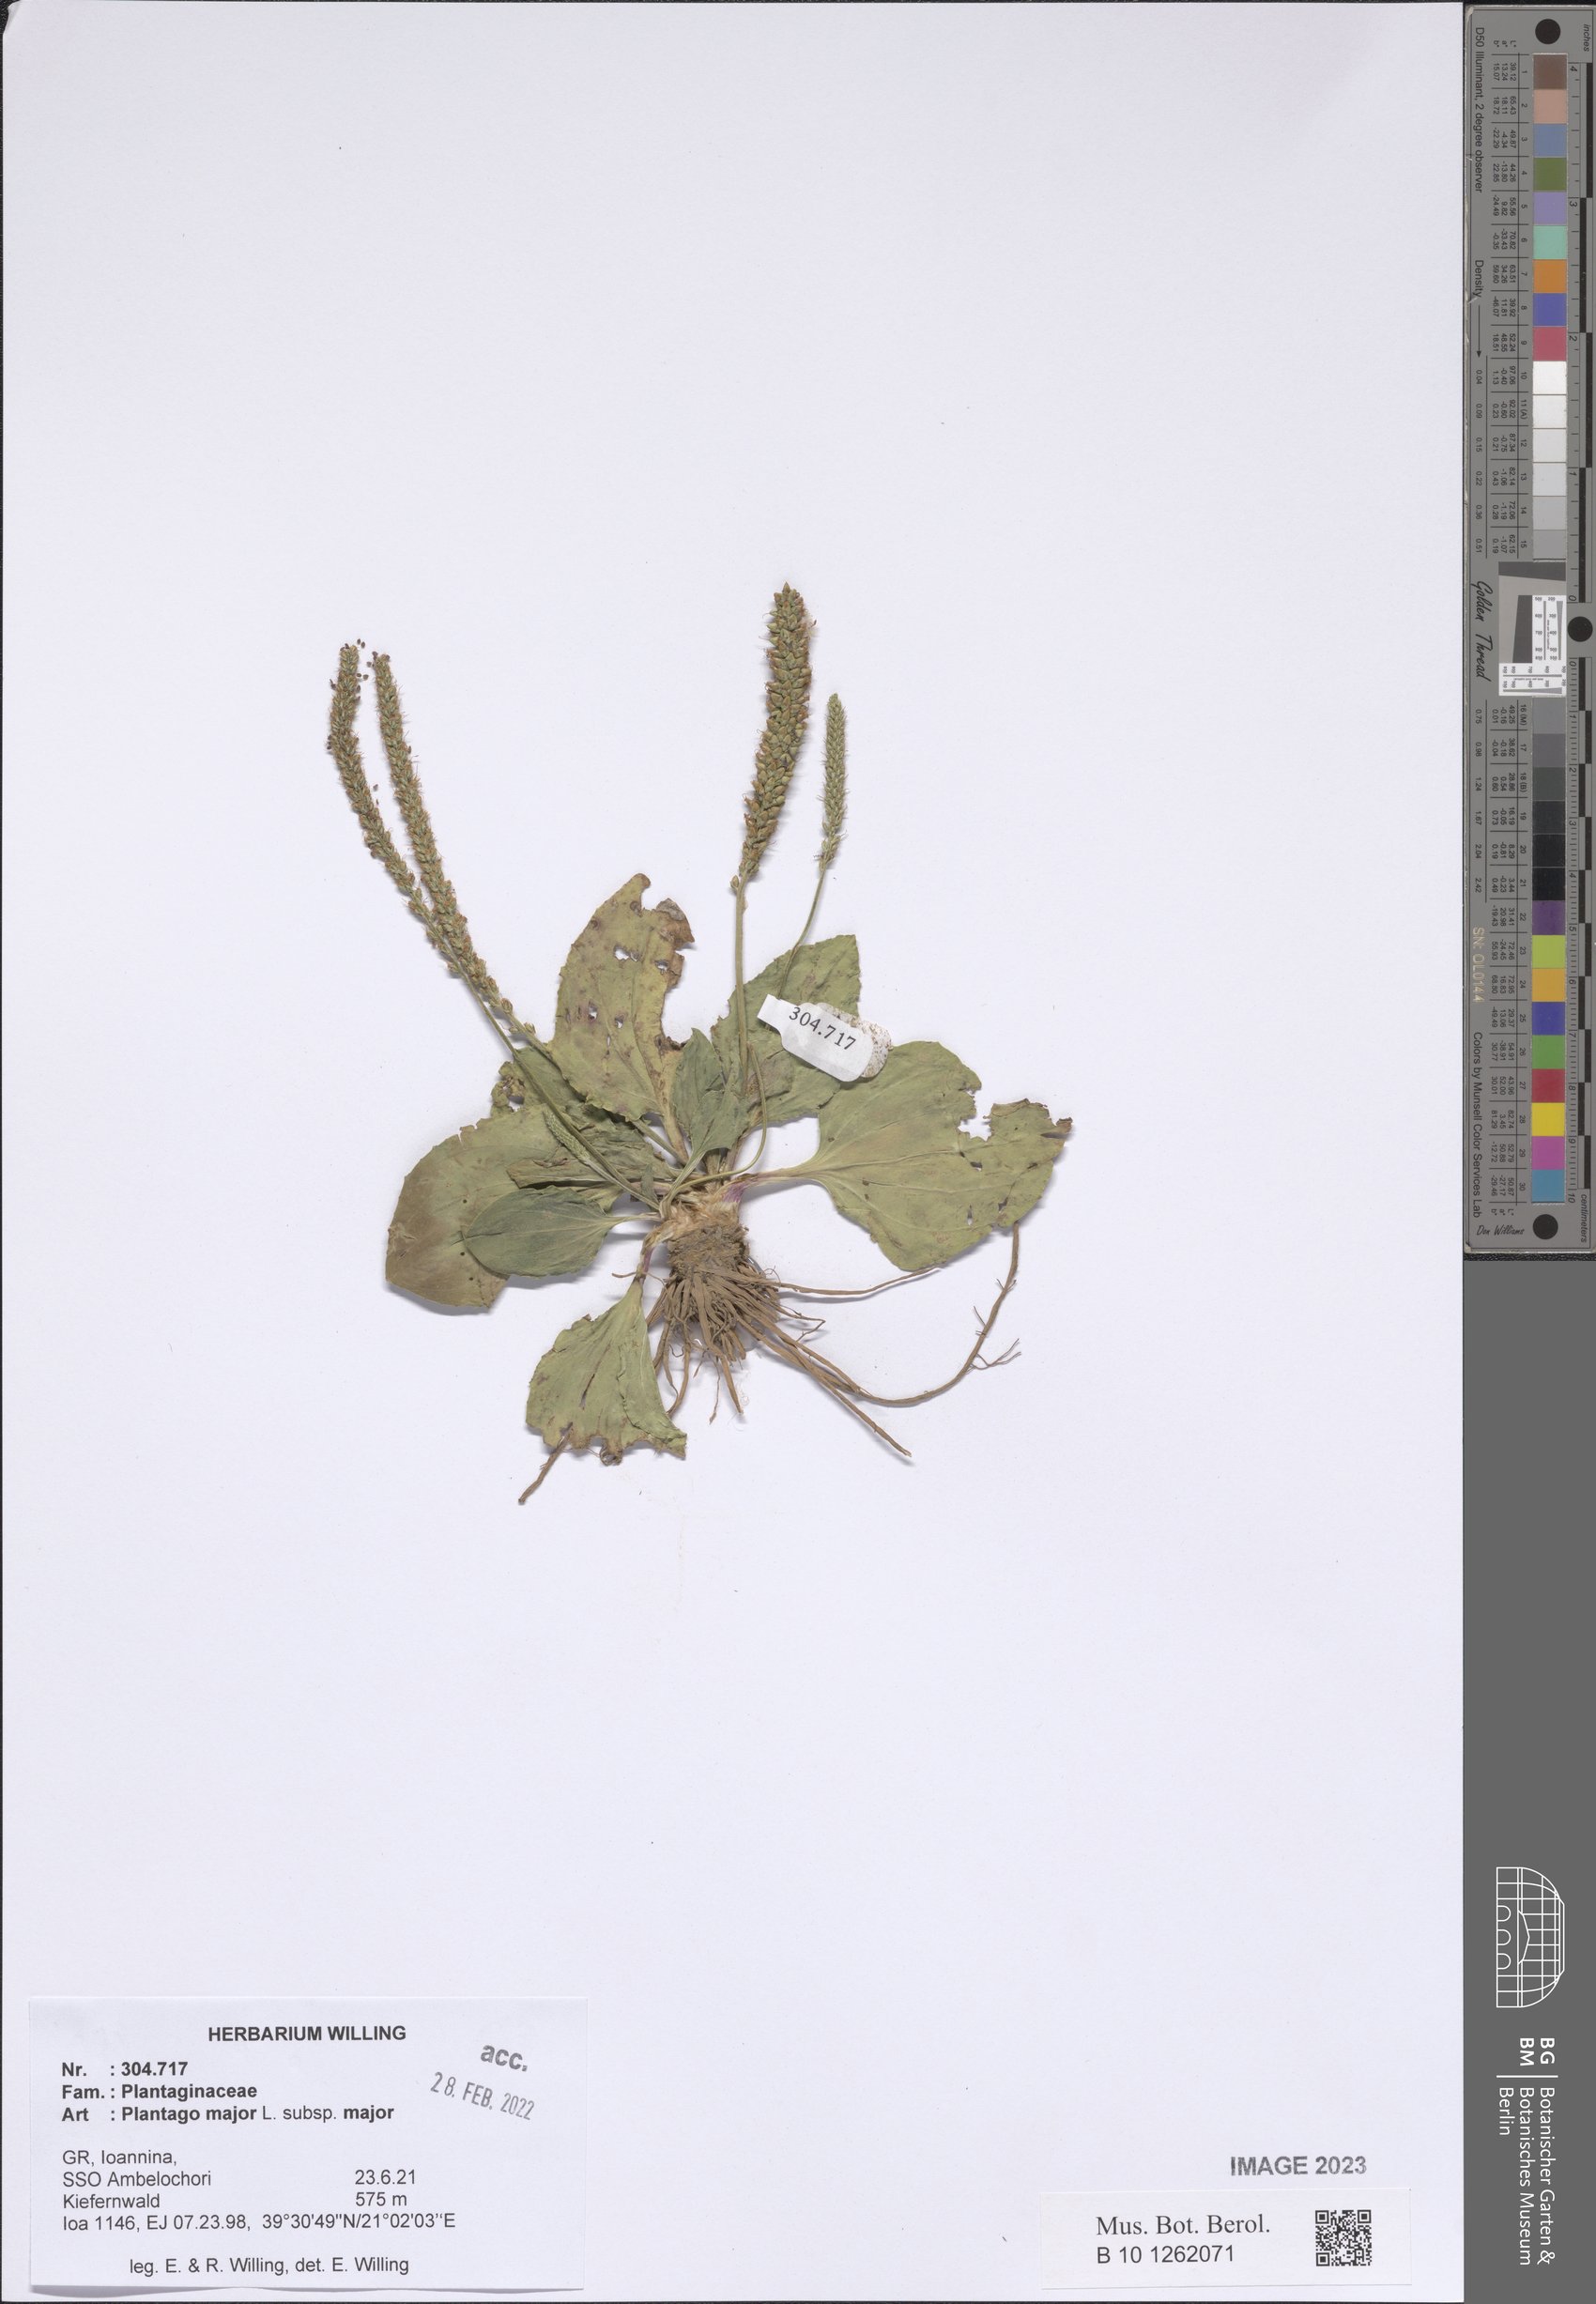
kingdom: Plantae
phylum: Tracheophyta
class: Magnoliopsida
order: Lamiales
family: Plantaginaceae
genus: Plantago
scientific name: Plantago major
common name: Common plantain
